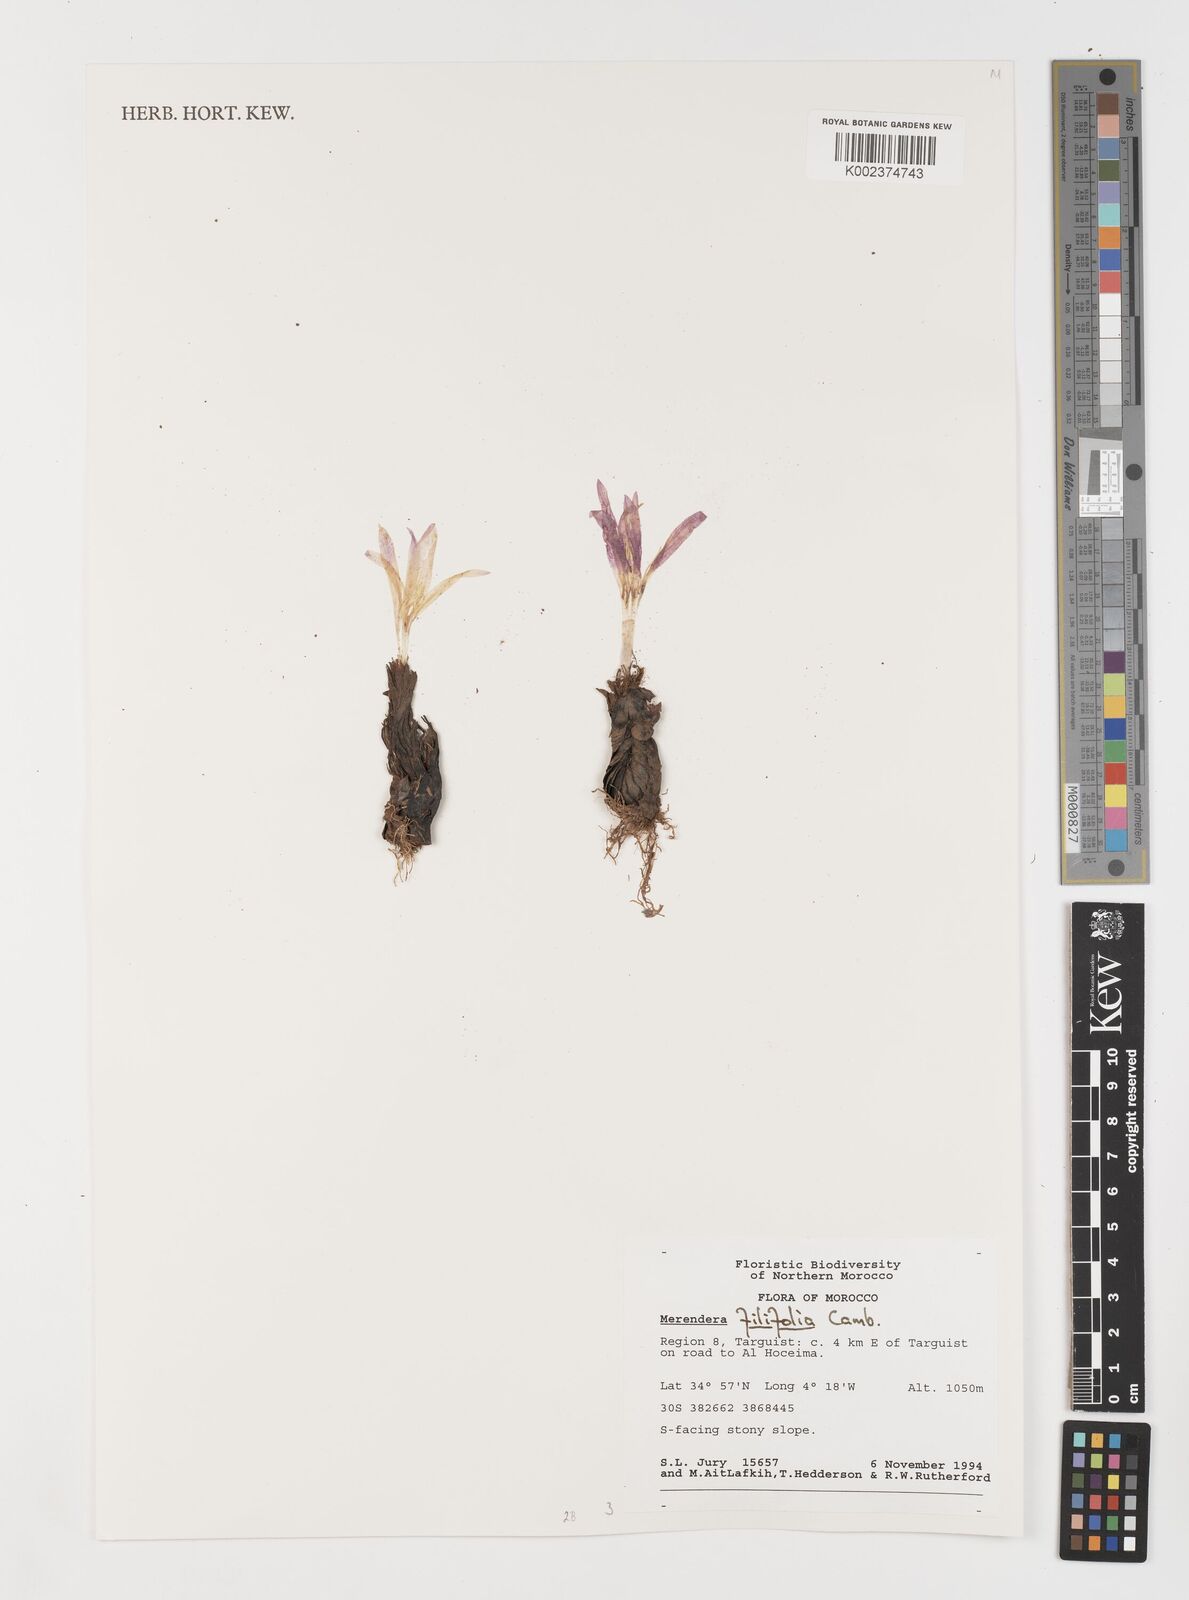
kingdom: Plantae
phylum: Tracheophyta
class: Liliopsida
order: Liliales
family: Colchicaceae
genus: Colchicum
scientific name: Colchicum filifolium
